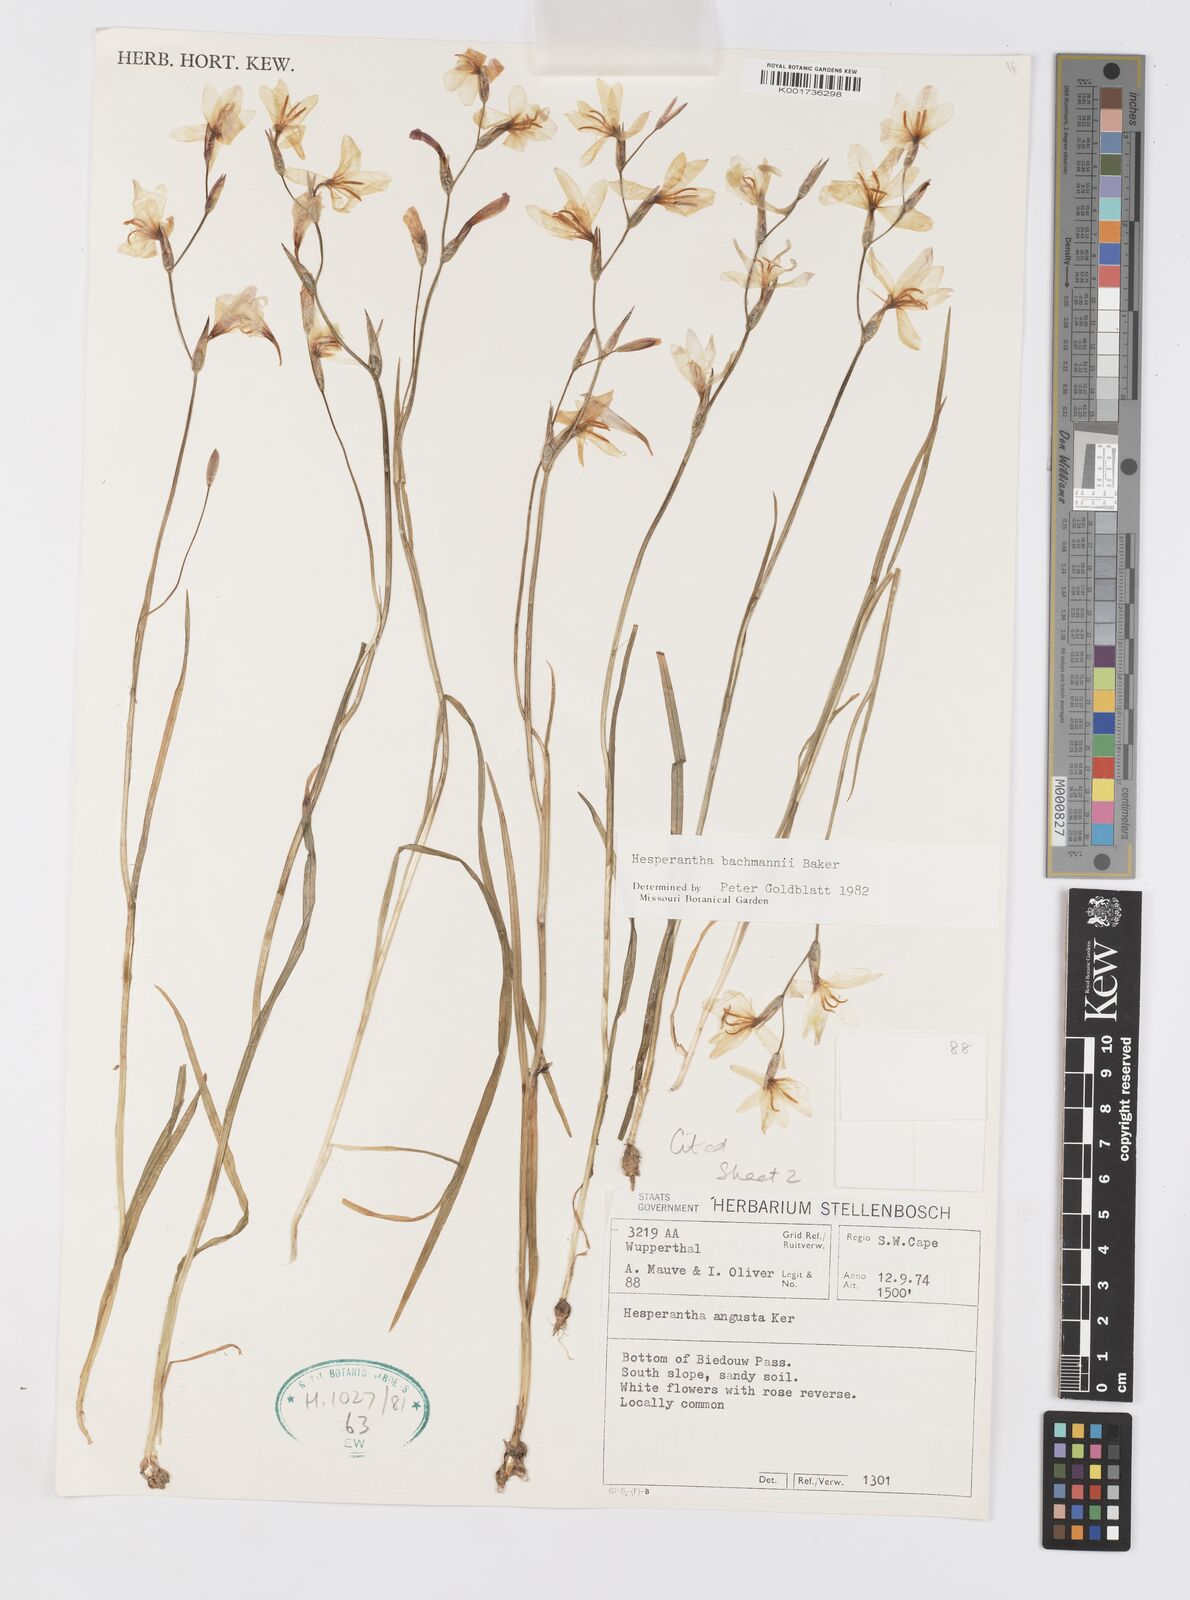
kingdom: Plantae
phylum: Tracheophyta
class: Liliopsida
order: Asparagales
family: Iridaceae
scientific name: Iridaceae
